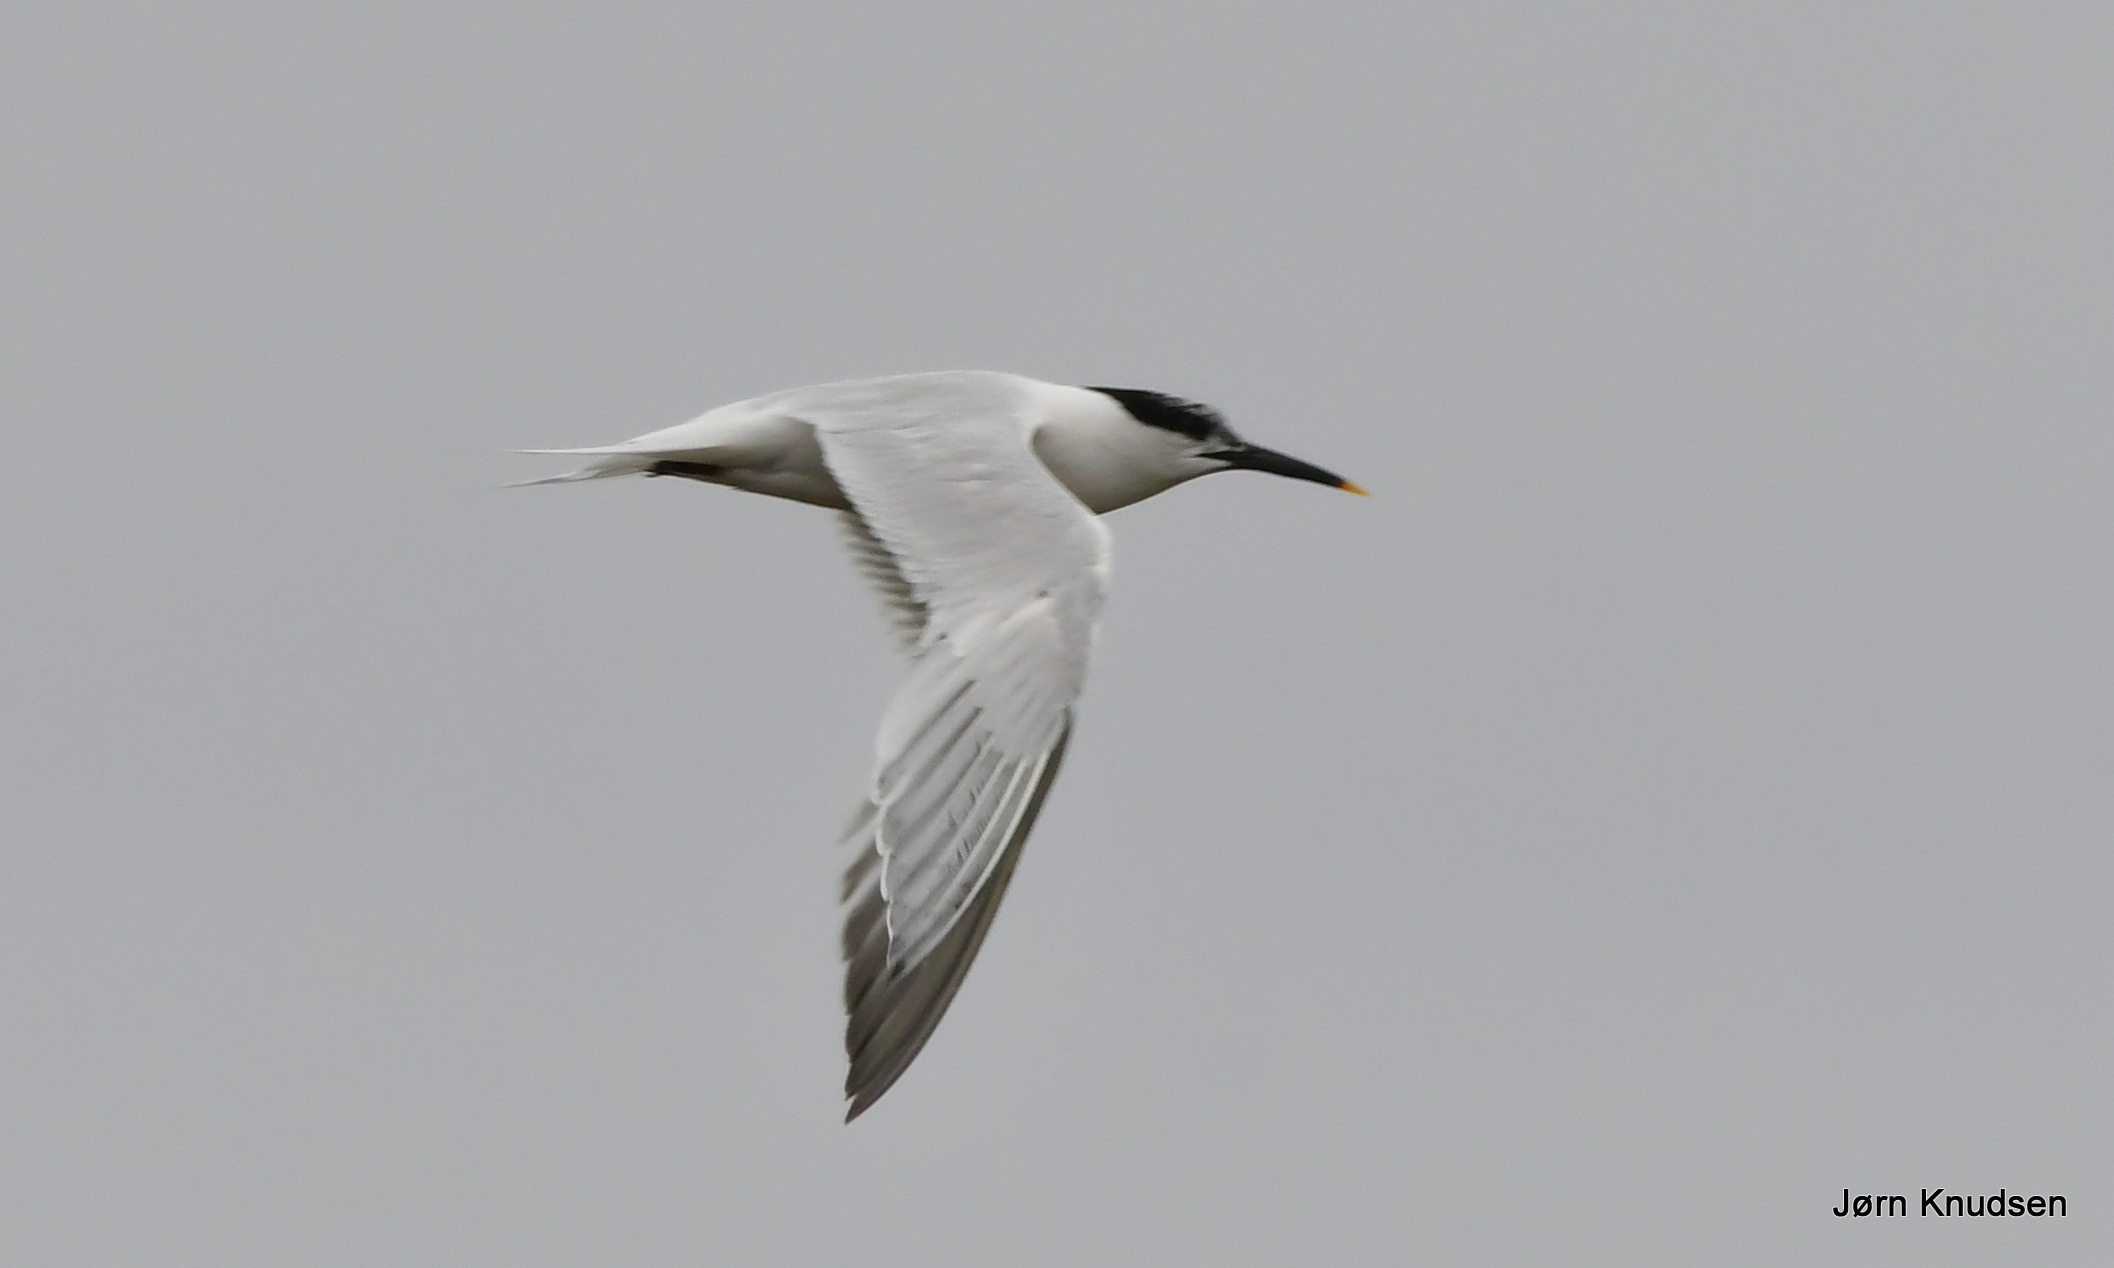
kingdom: Animalia
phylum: Chordata
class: Aves
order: Charadriiformes
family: Laridae
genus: Thalasseus
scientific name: Thalasseus sandvicensis
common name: Splitterne
